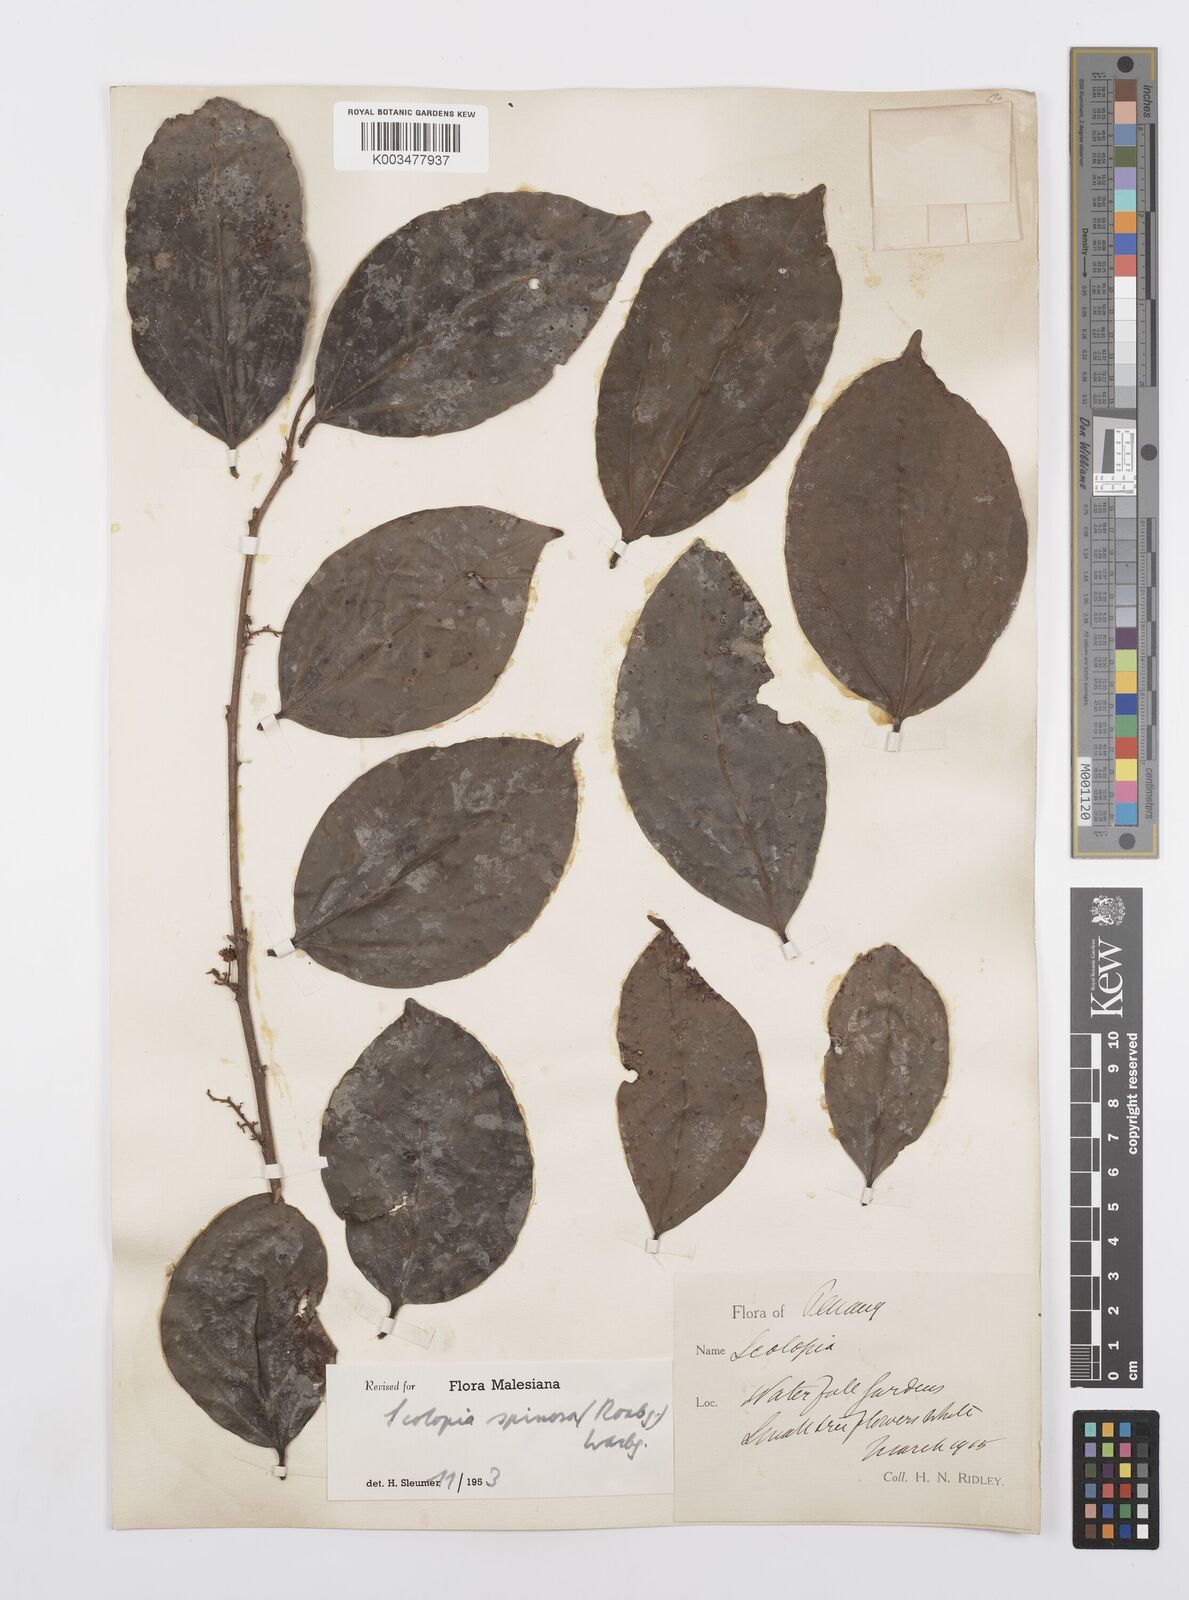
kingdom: Plantae
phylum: Tracheophyta
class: Magnoliopsida
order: Malpighiales
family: Salicaceae
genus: Scolopia
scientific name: Scolopia spinosa
